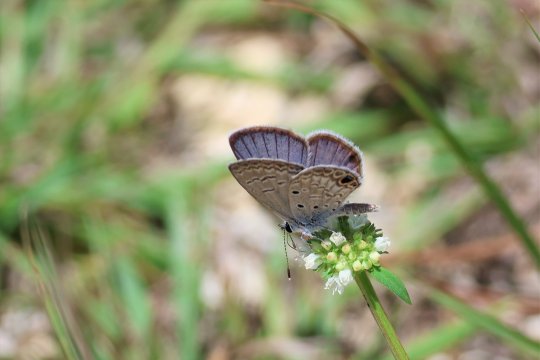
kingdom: Animalia
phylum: Arthropoda
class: Insecta
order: Lepidoptera
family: Lycaenidae
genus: Hemiargus
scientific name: Hemiargus ceraunus
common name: Ceraunus Blue
